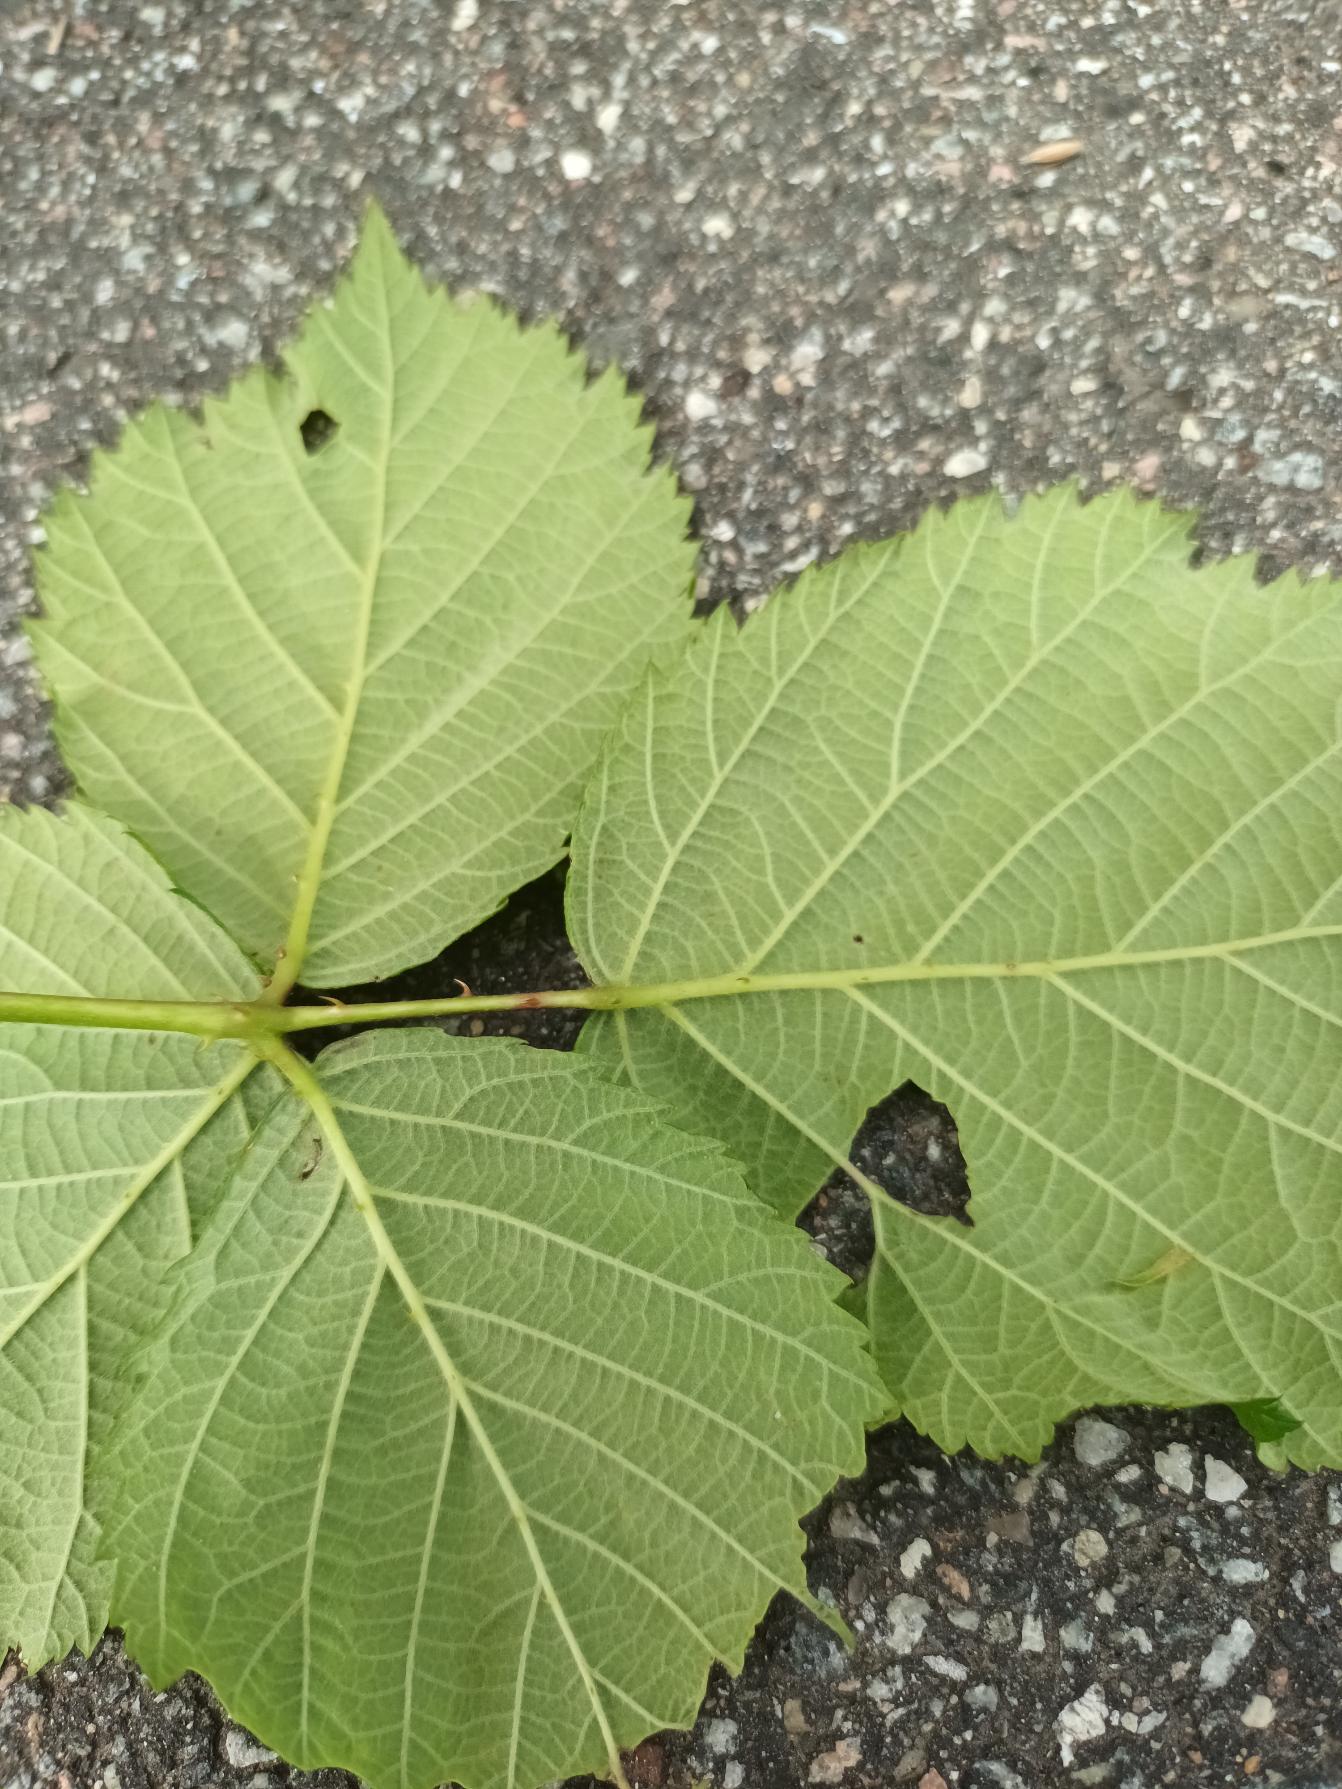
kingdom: Plantae
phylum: Tracheophyta
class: Magnoliopsida
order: Rosales
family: Rosaceae
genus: Rubus
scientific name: Rubus wahlbergii
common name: Wahlbergs hasselbrombær
